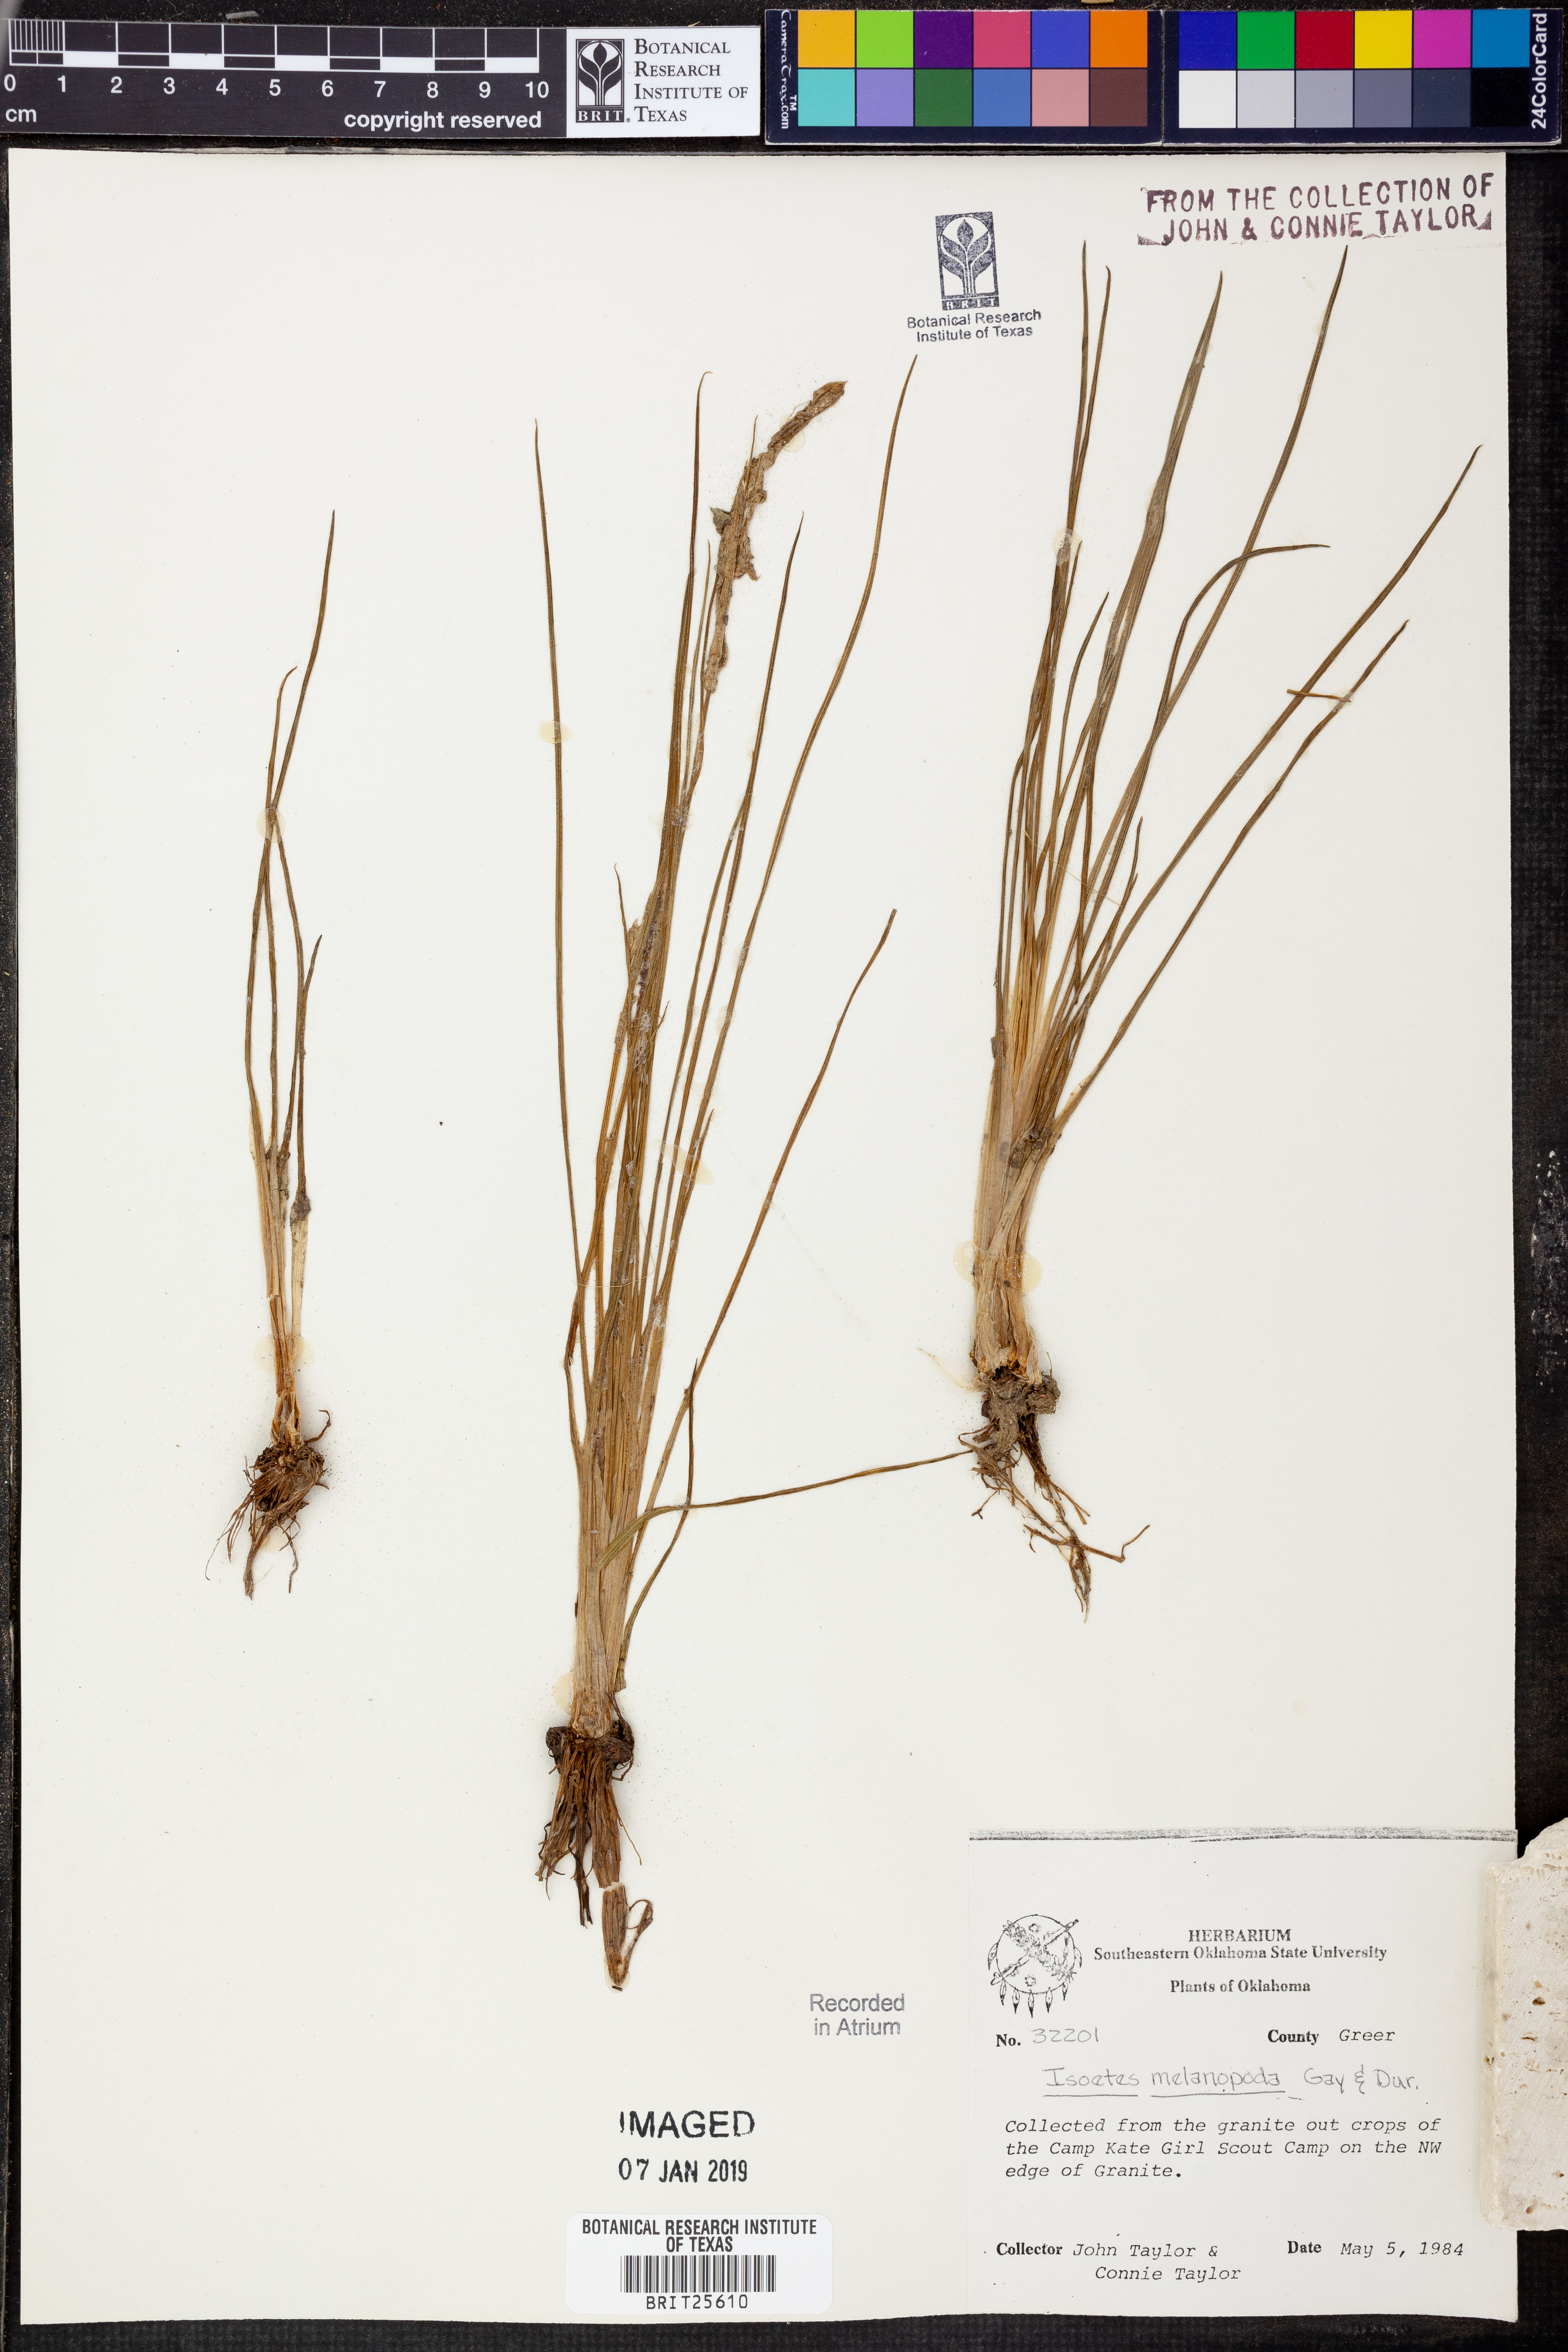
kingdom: Plantae
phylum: Tracheophyta
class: Lycopodiopsida
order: Isoetales
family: Isoetaceae
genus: Isoetes
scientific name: Isoetes melanopoda
